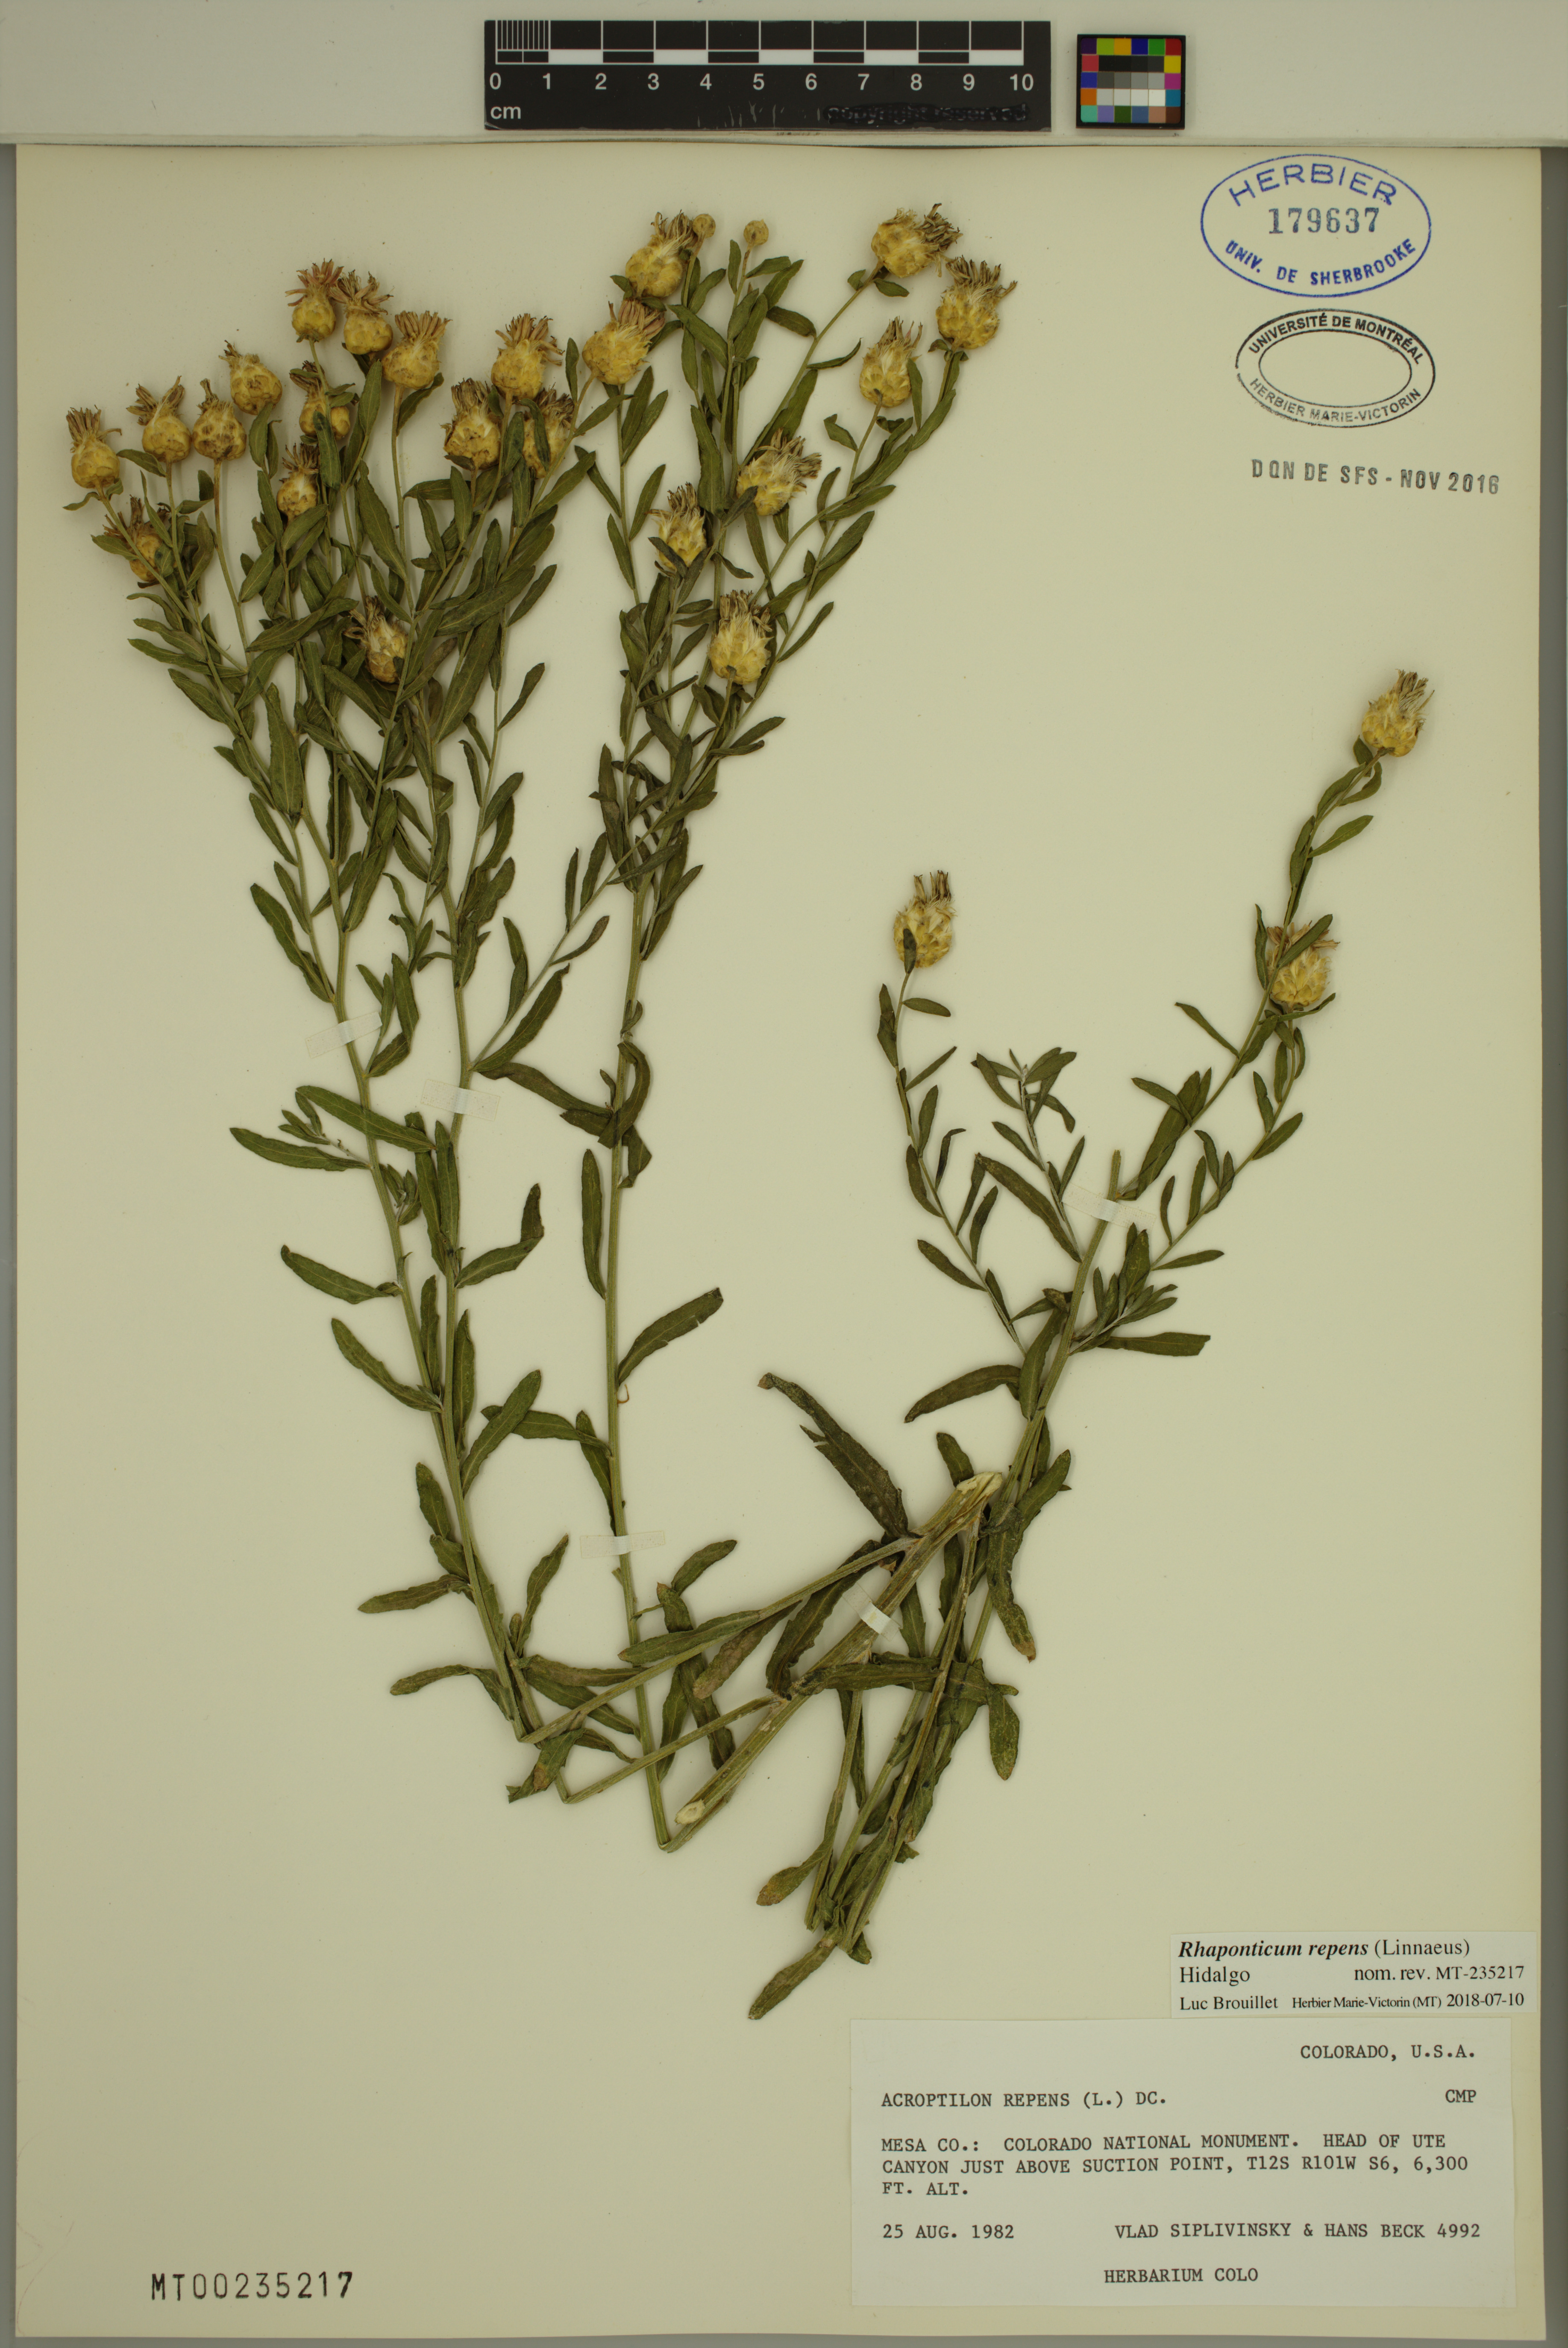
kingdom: Plantae
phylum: Tracheophyta
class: Magnoliopsida
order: Asterales
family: Asteraceae
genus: Leuzea
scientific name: Leuzea repens
